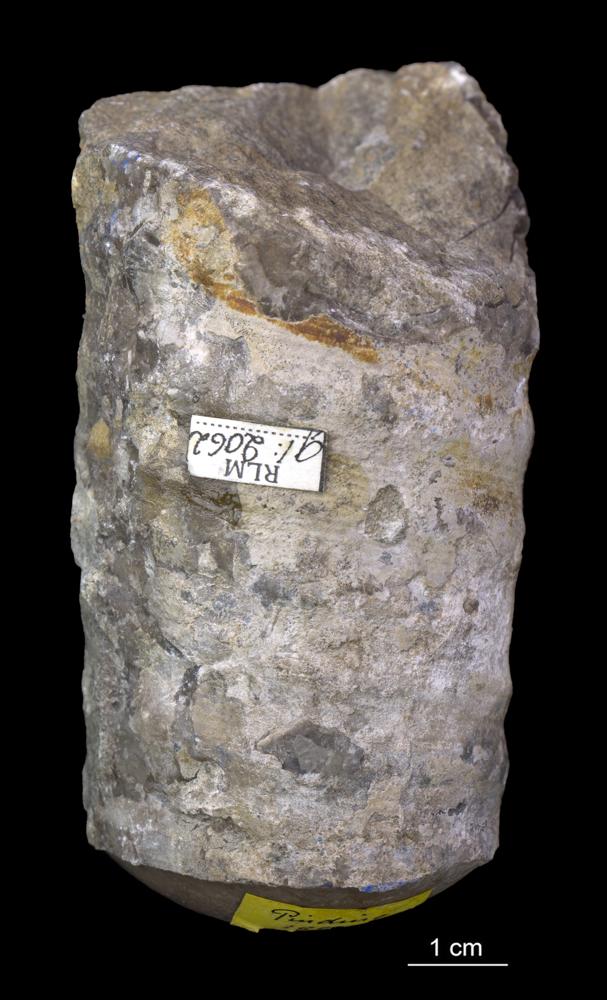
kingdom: Animalia
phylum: Mollusca
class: Cephalopoda
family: Estonioceratidae
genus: Estonioceras
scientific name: Estonioceras
